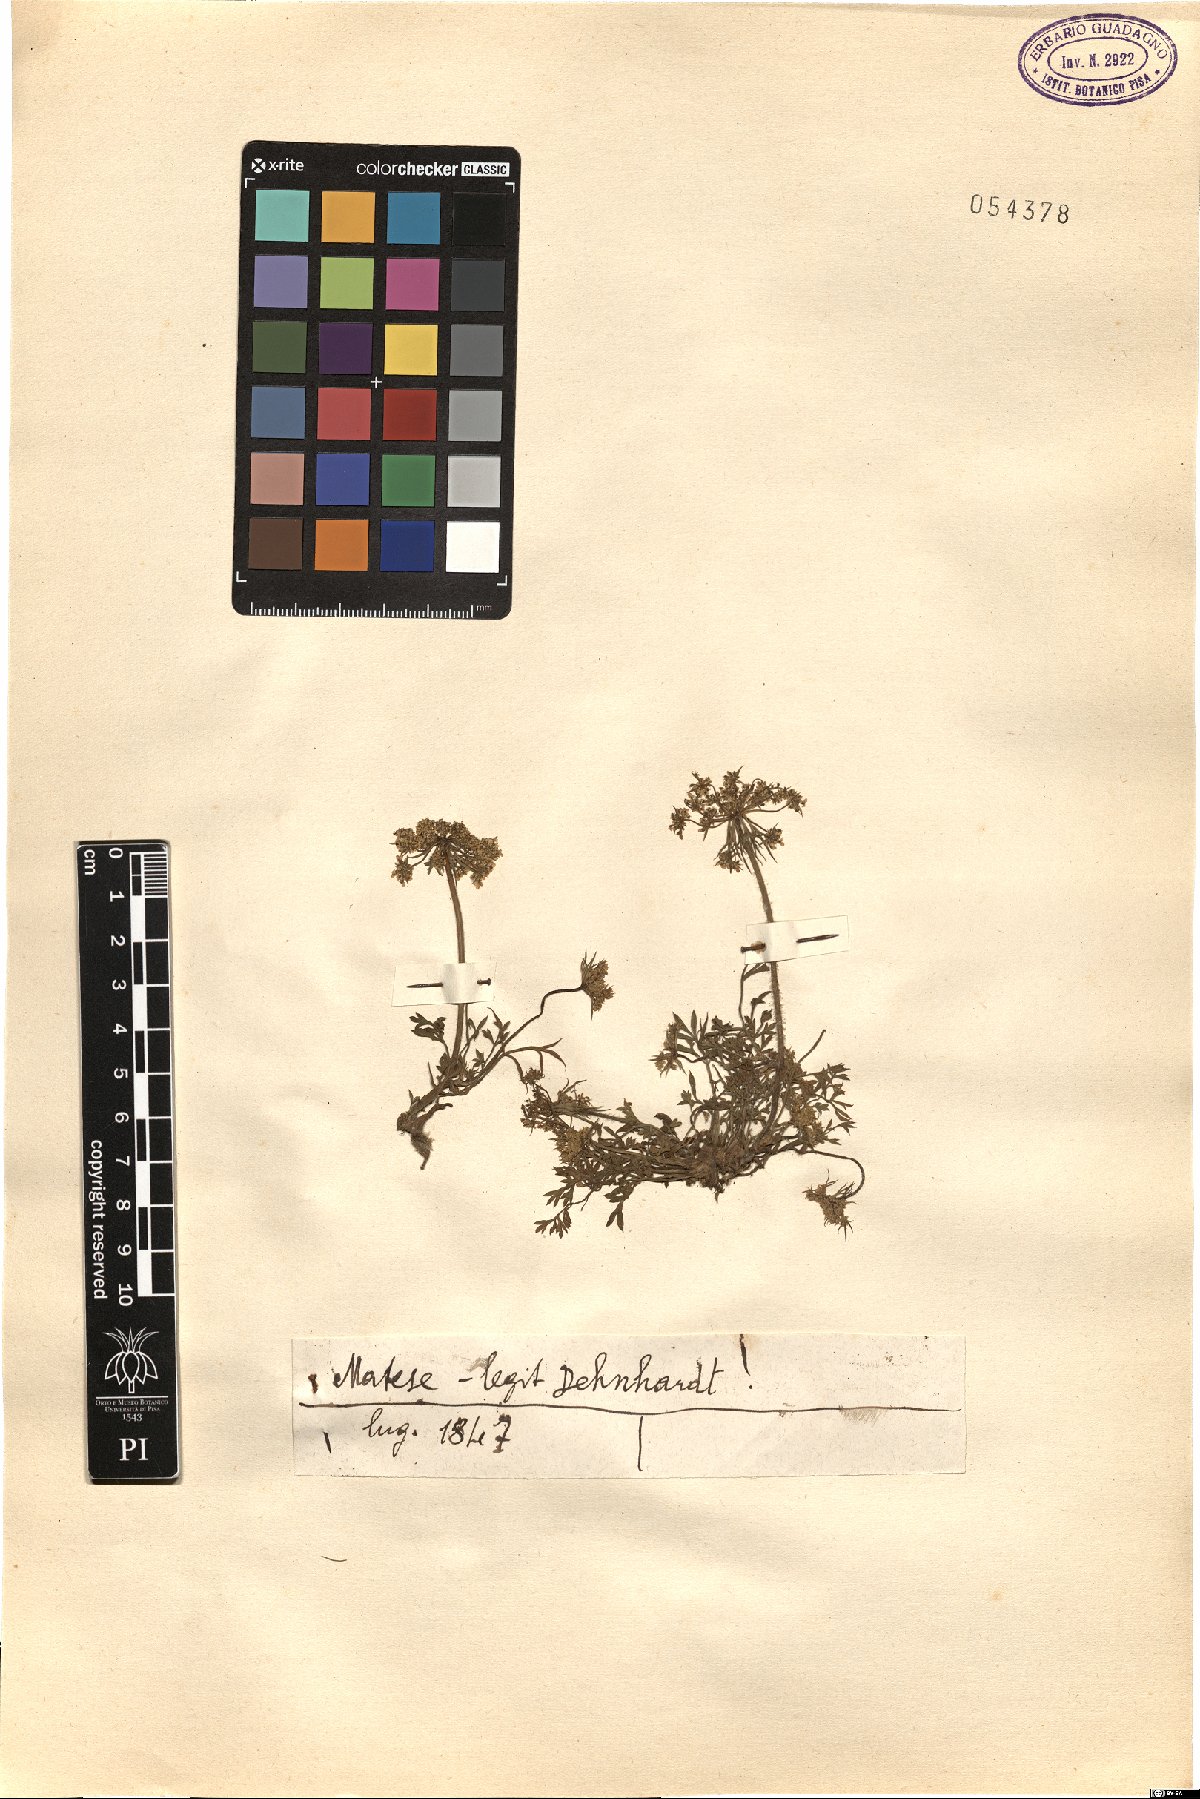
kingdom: Plantae
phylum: Tracheophyta
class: Magnoliopsida
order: Apiales
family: Apiaceae
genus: Daucus
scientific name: Daucus
